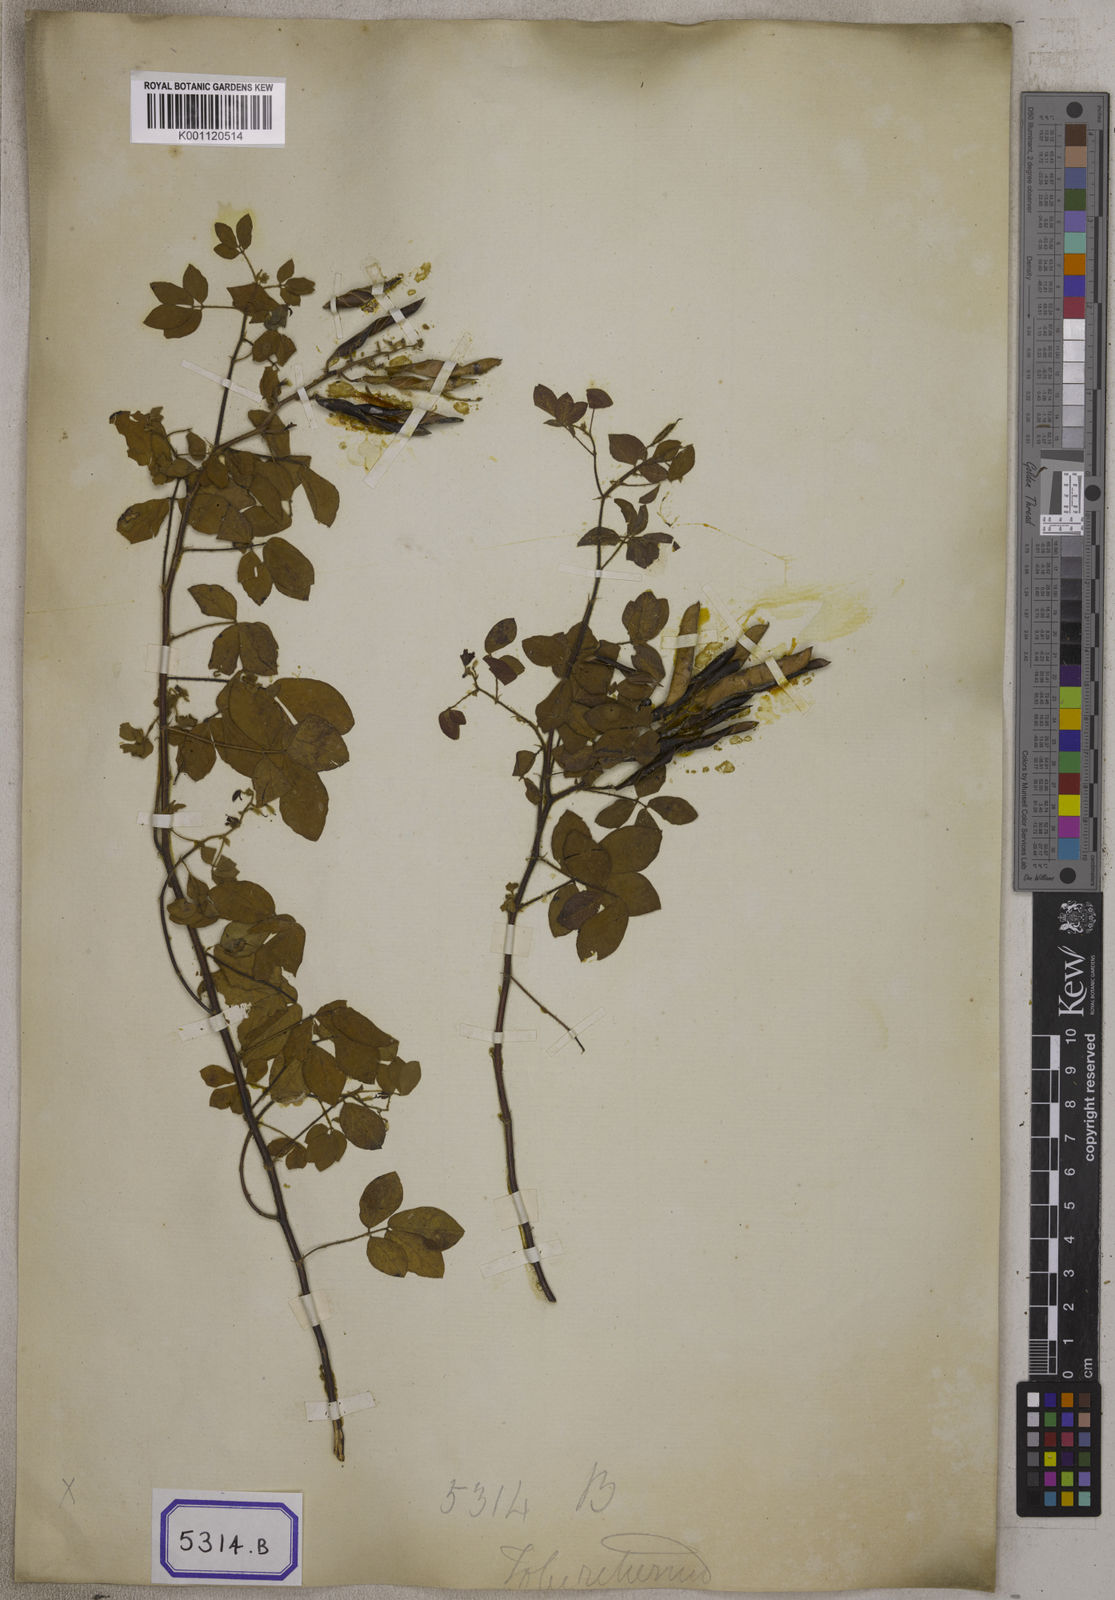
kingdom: Plantae
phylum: Tracheophyta
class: Magnoliopsida
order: Fabales
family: Fabaceae
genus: Chamaecrista
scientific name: Chamaecrista absus
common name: Tropical sensitive pea
